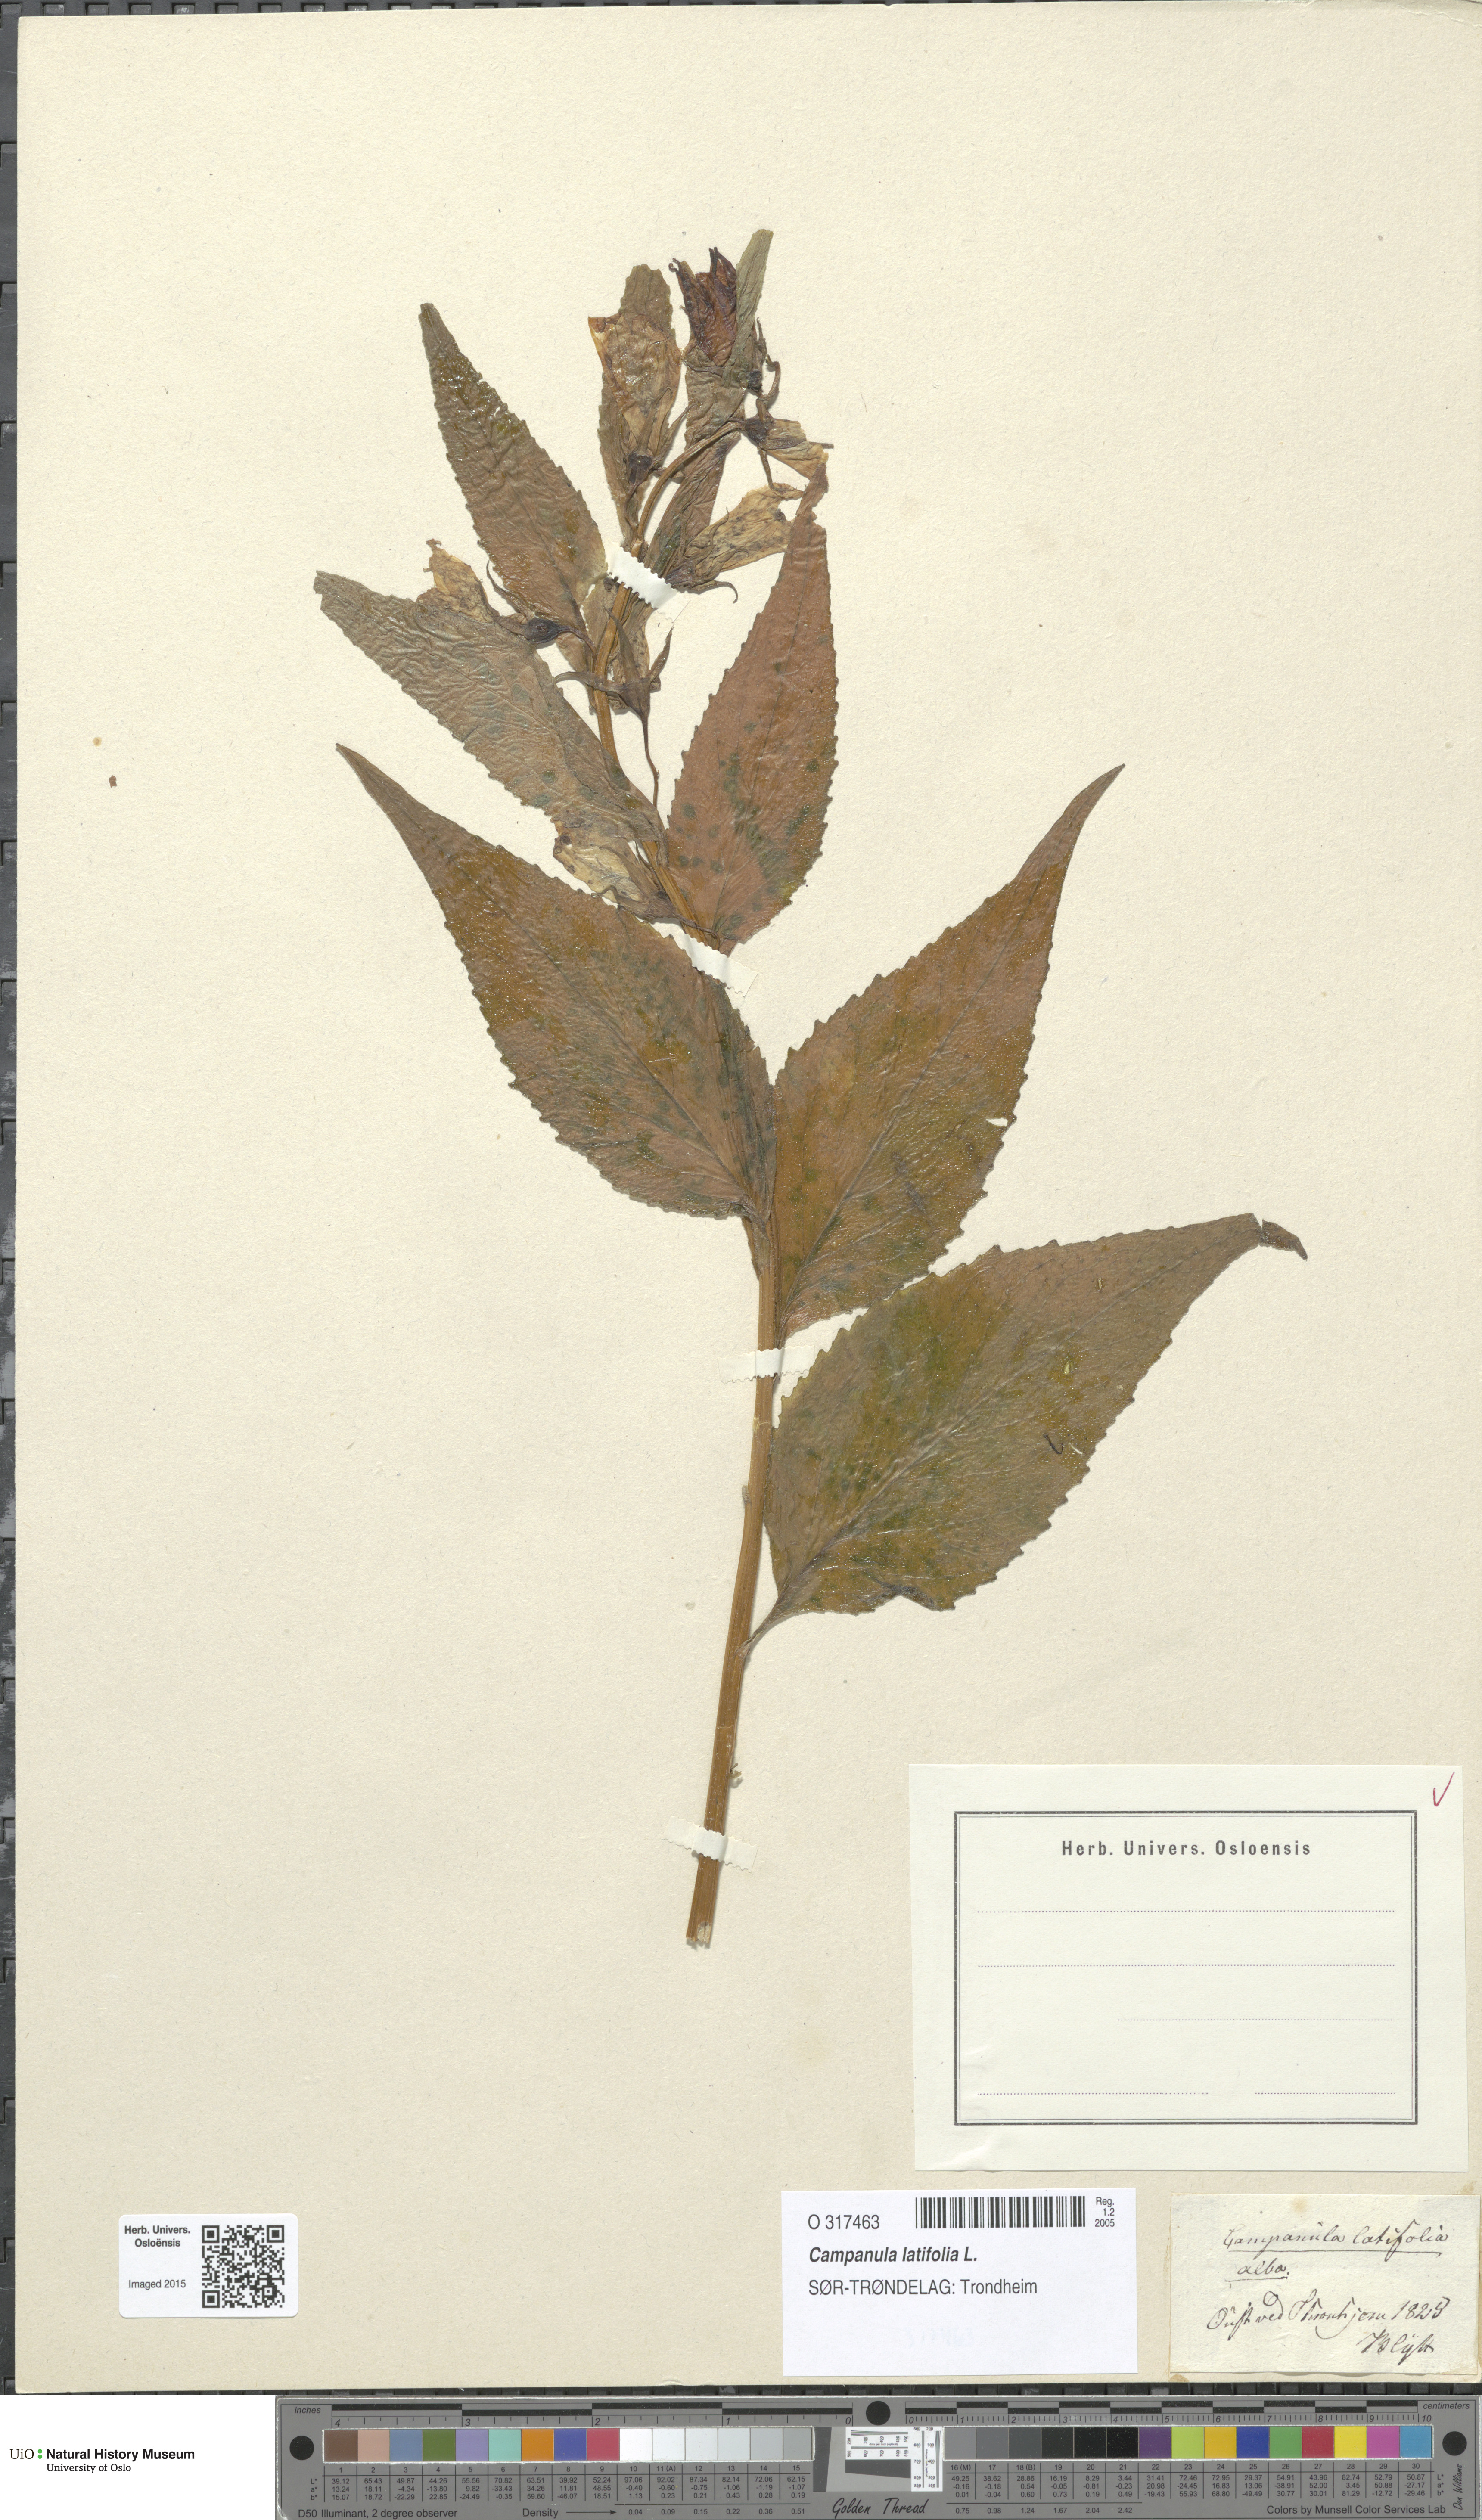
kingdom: Plantae
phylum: Tracheophyta
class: Magnoliopsida
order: Asterales
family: Campanulaceae
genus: Campanula
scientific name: Campanula latifolia
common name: Giant bellflower
